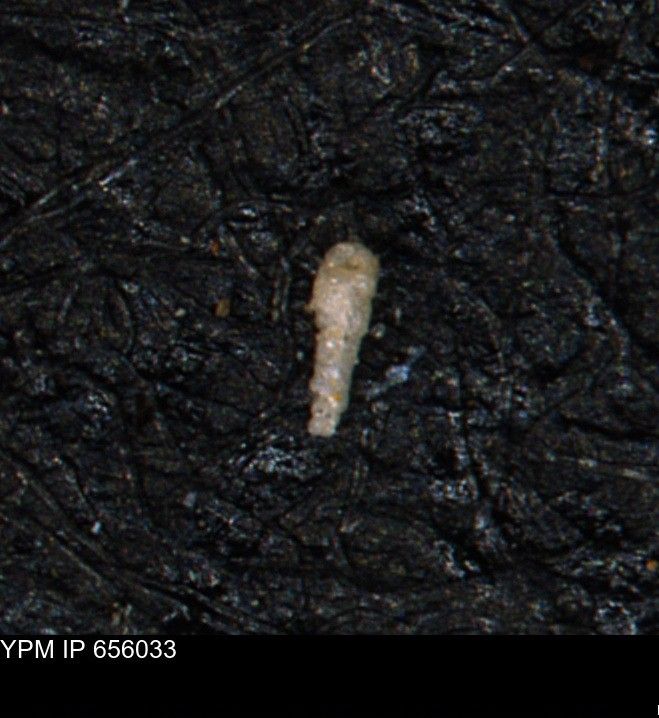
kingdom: Chromista
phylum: Foraminifera
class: Globothalamea
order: Lituolida
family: Verneuilinidae
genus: Verneuilinoides
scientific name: Verneuilinoides kansasensis
